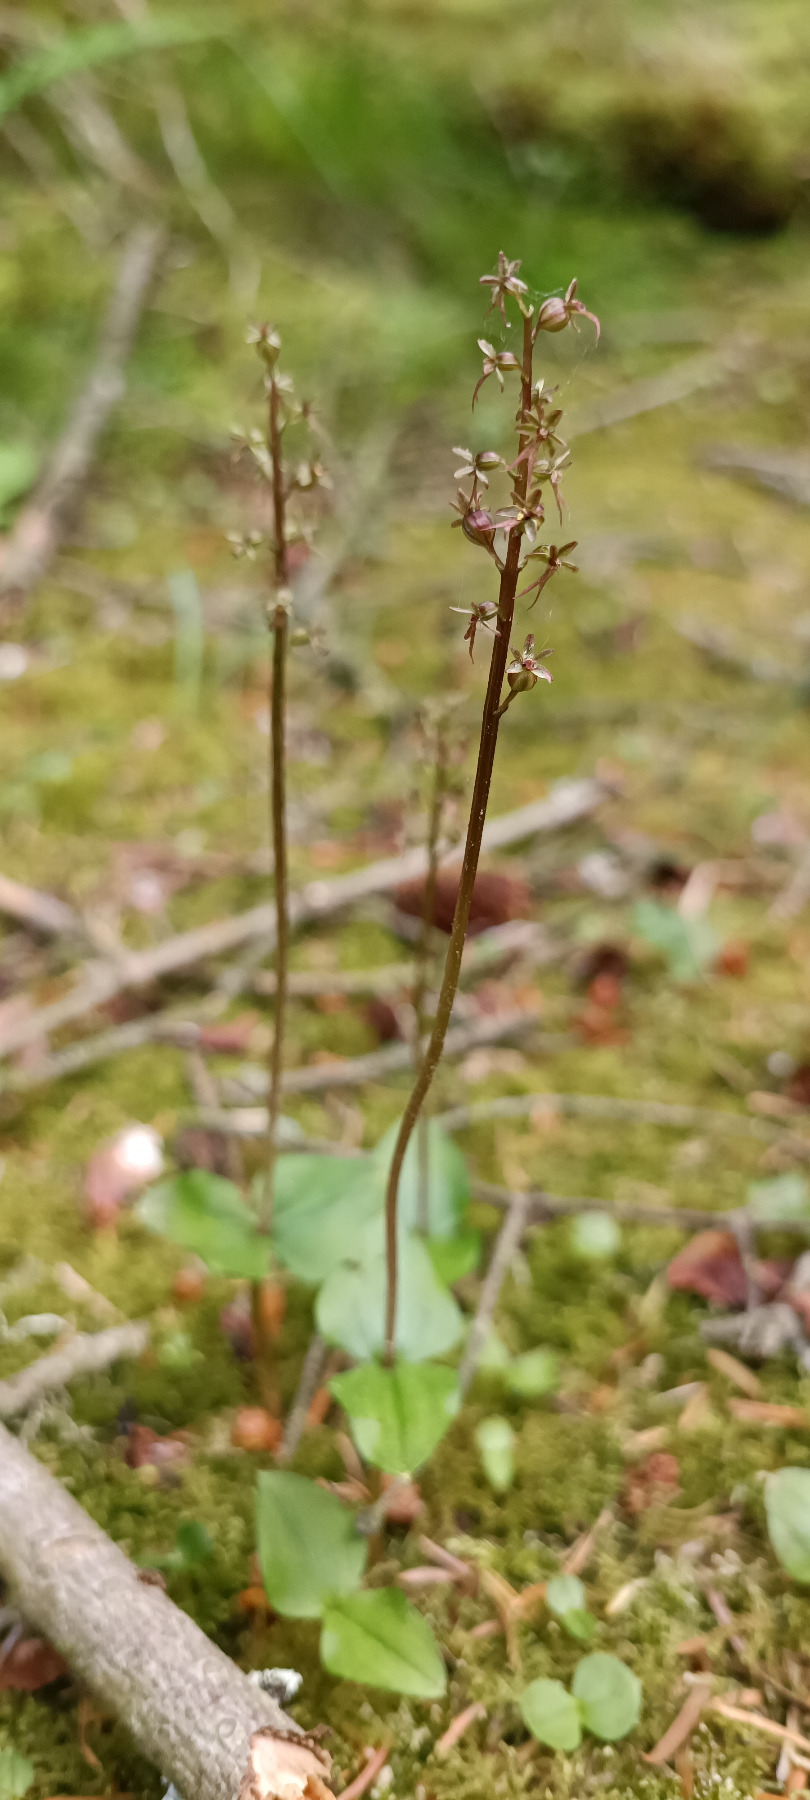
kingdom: Plantae
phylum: Tracheophyta
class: Liliopsida
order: Asparagales
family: Orchidaceae
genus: Neottia
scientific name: Neottia cordata
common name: Hjertebladet fliglæbe
